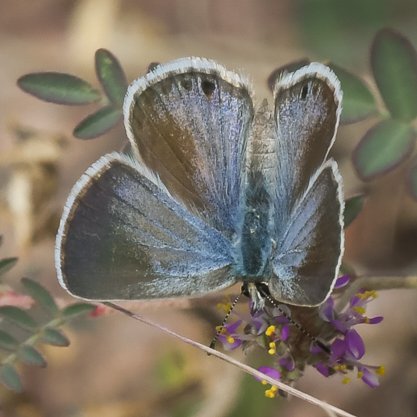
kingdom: Animalia
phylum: Arthropoda
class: Insecta
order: Lepidoptera
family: Lycaenidae
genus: Hemiargus
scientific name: Hemiargus ceraunus
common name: Ceraunus Blue
